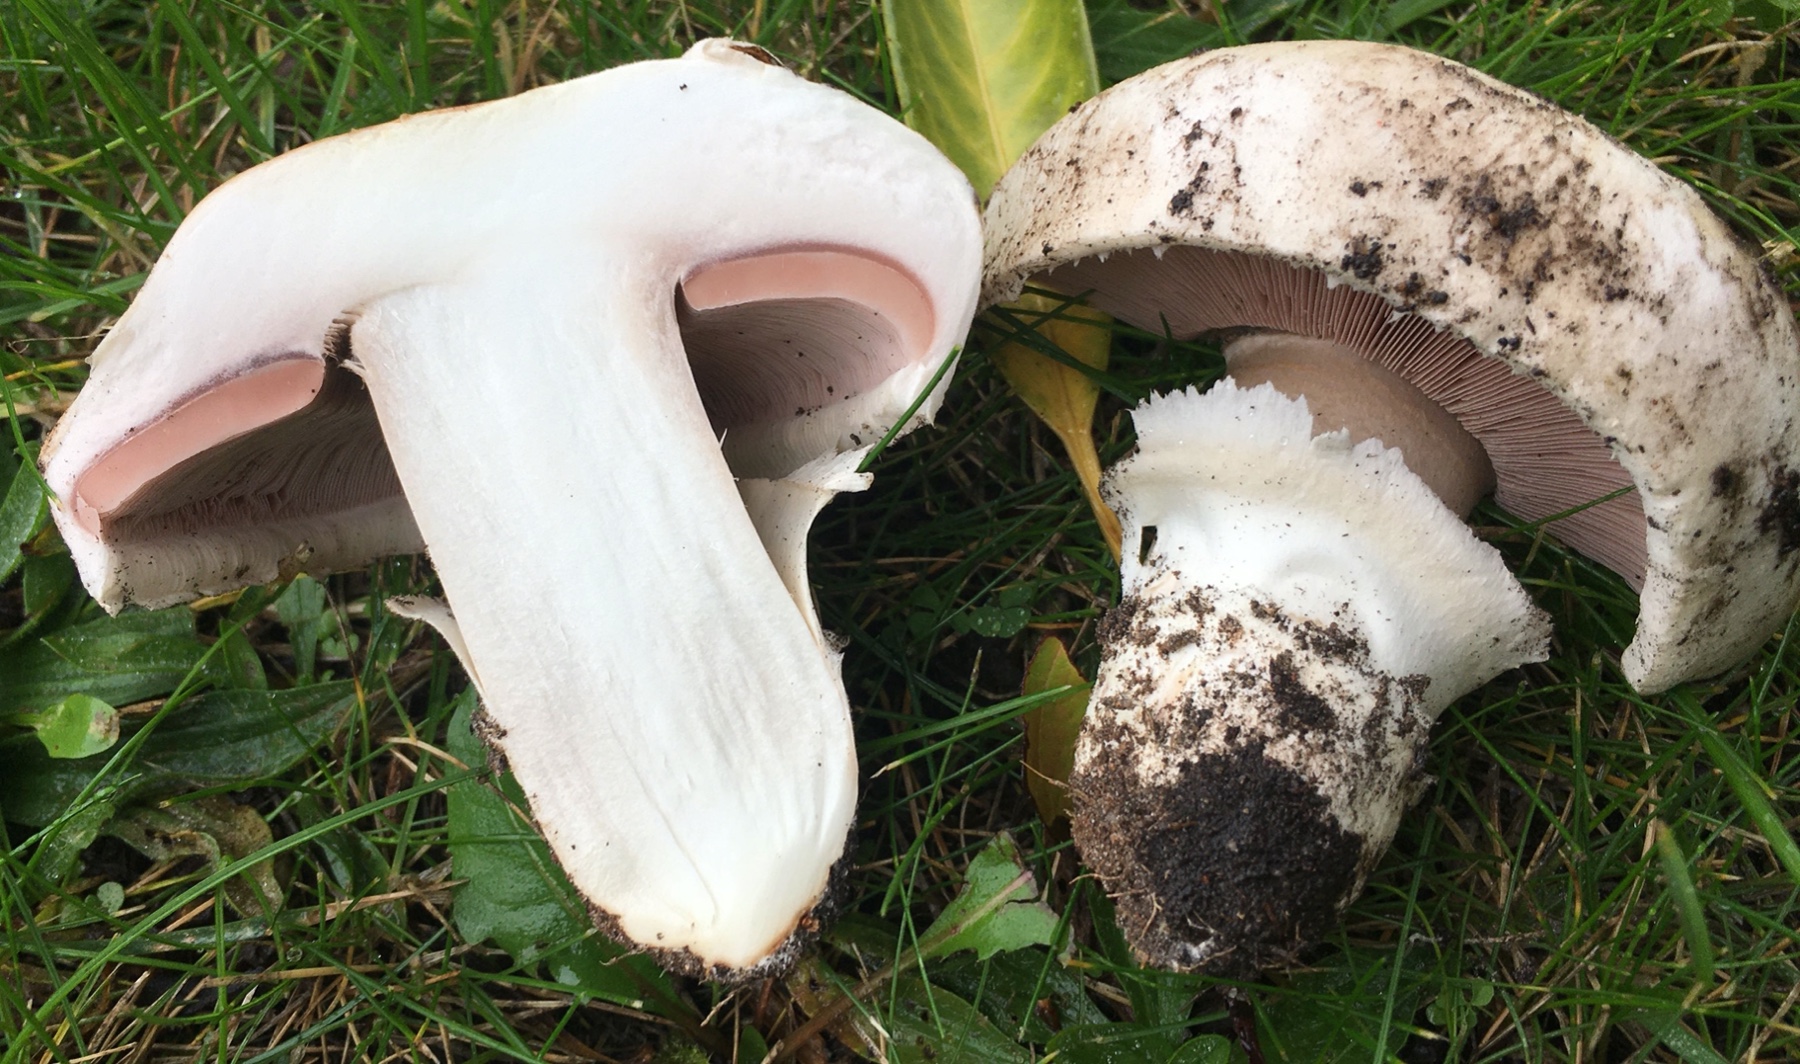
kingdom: Fungi
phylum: Basidiomycota
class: Agaricomycetes
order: Agaricales
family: Agaricaceae
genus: Agaricus
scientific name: Agaricus bitorquis
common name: vej-champignon
